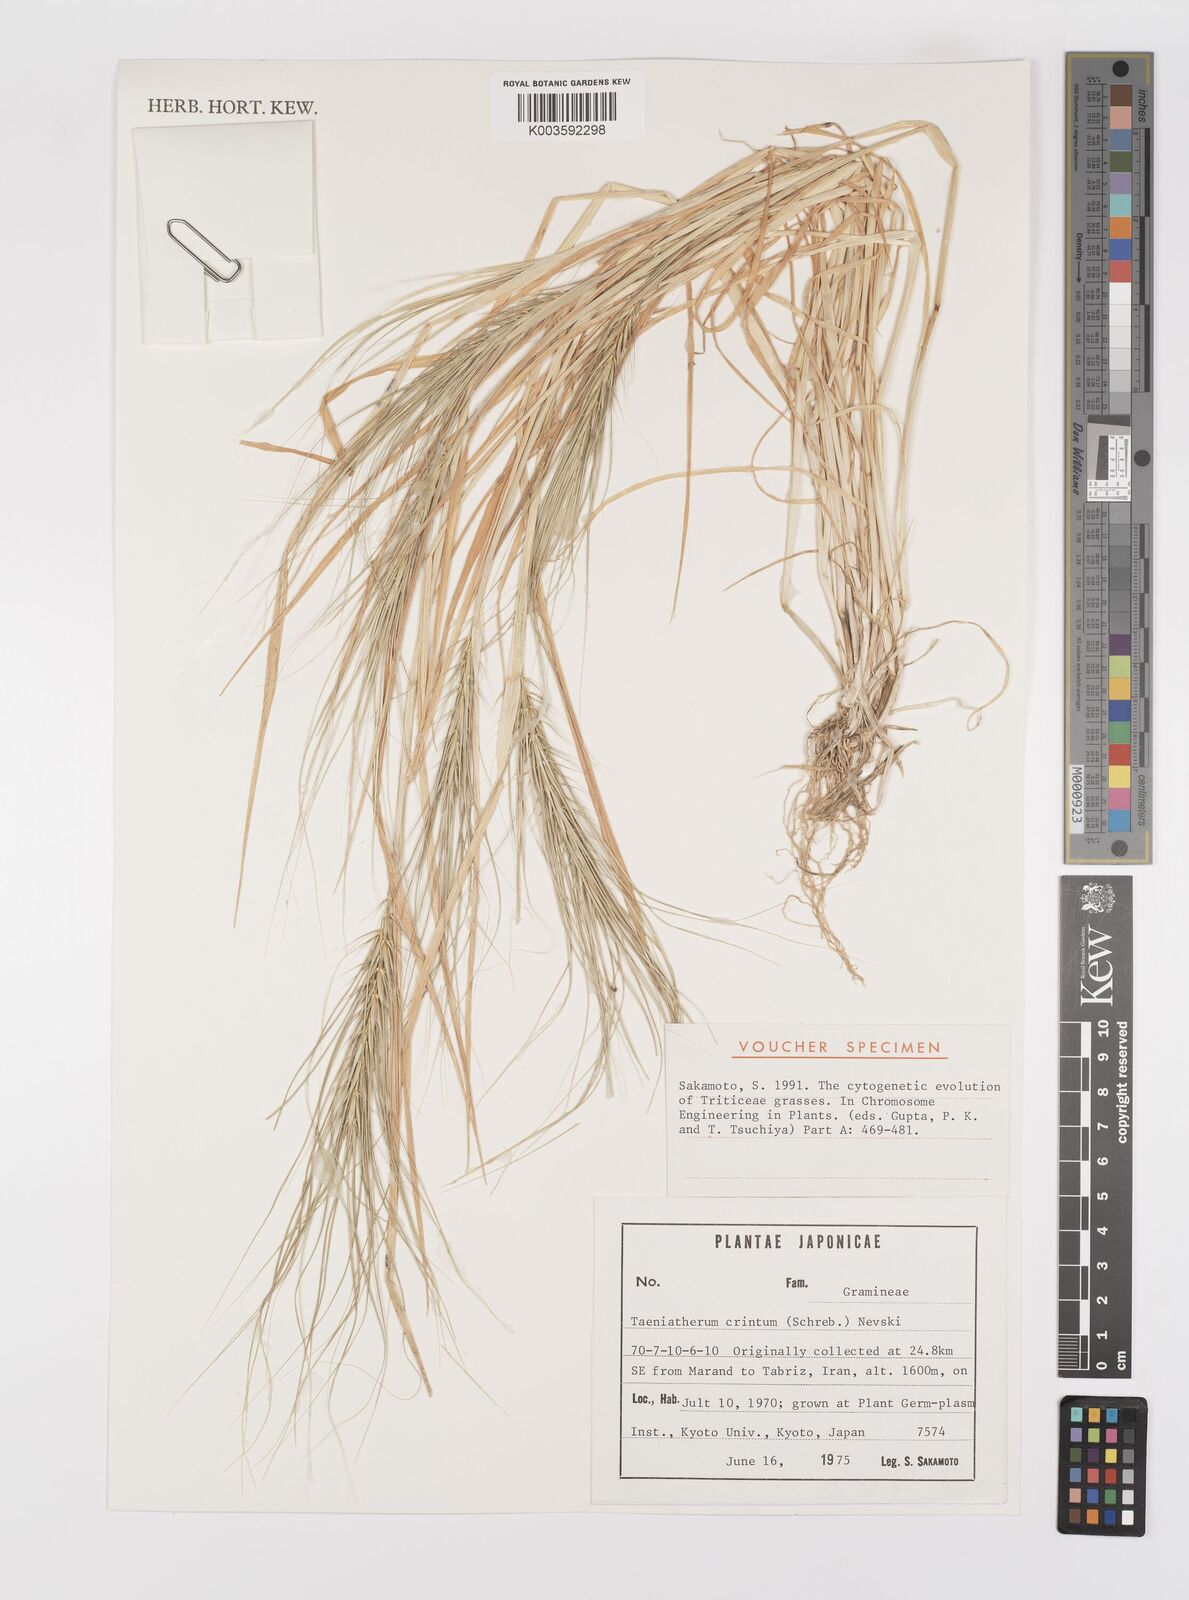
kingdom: Plantae
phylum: Tracheophyta
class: Liliopsida
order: Poales
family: Poaceae
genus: Taeniatherum
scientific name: Taeniatherum caput-medusae
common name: Medusahead
